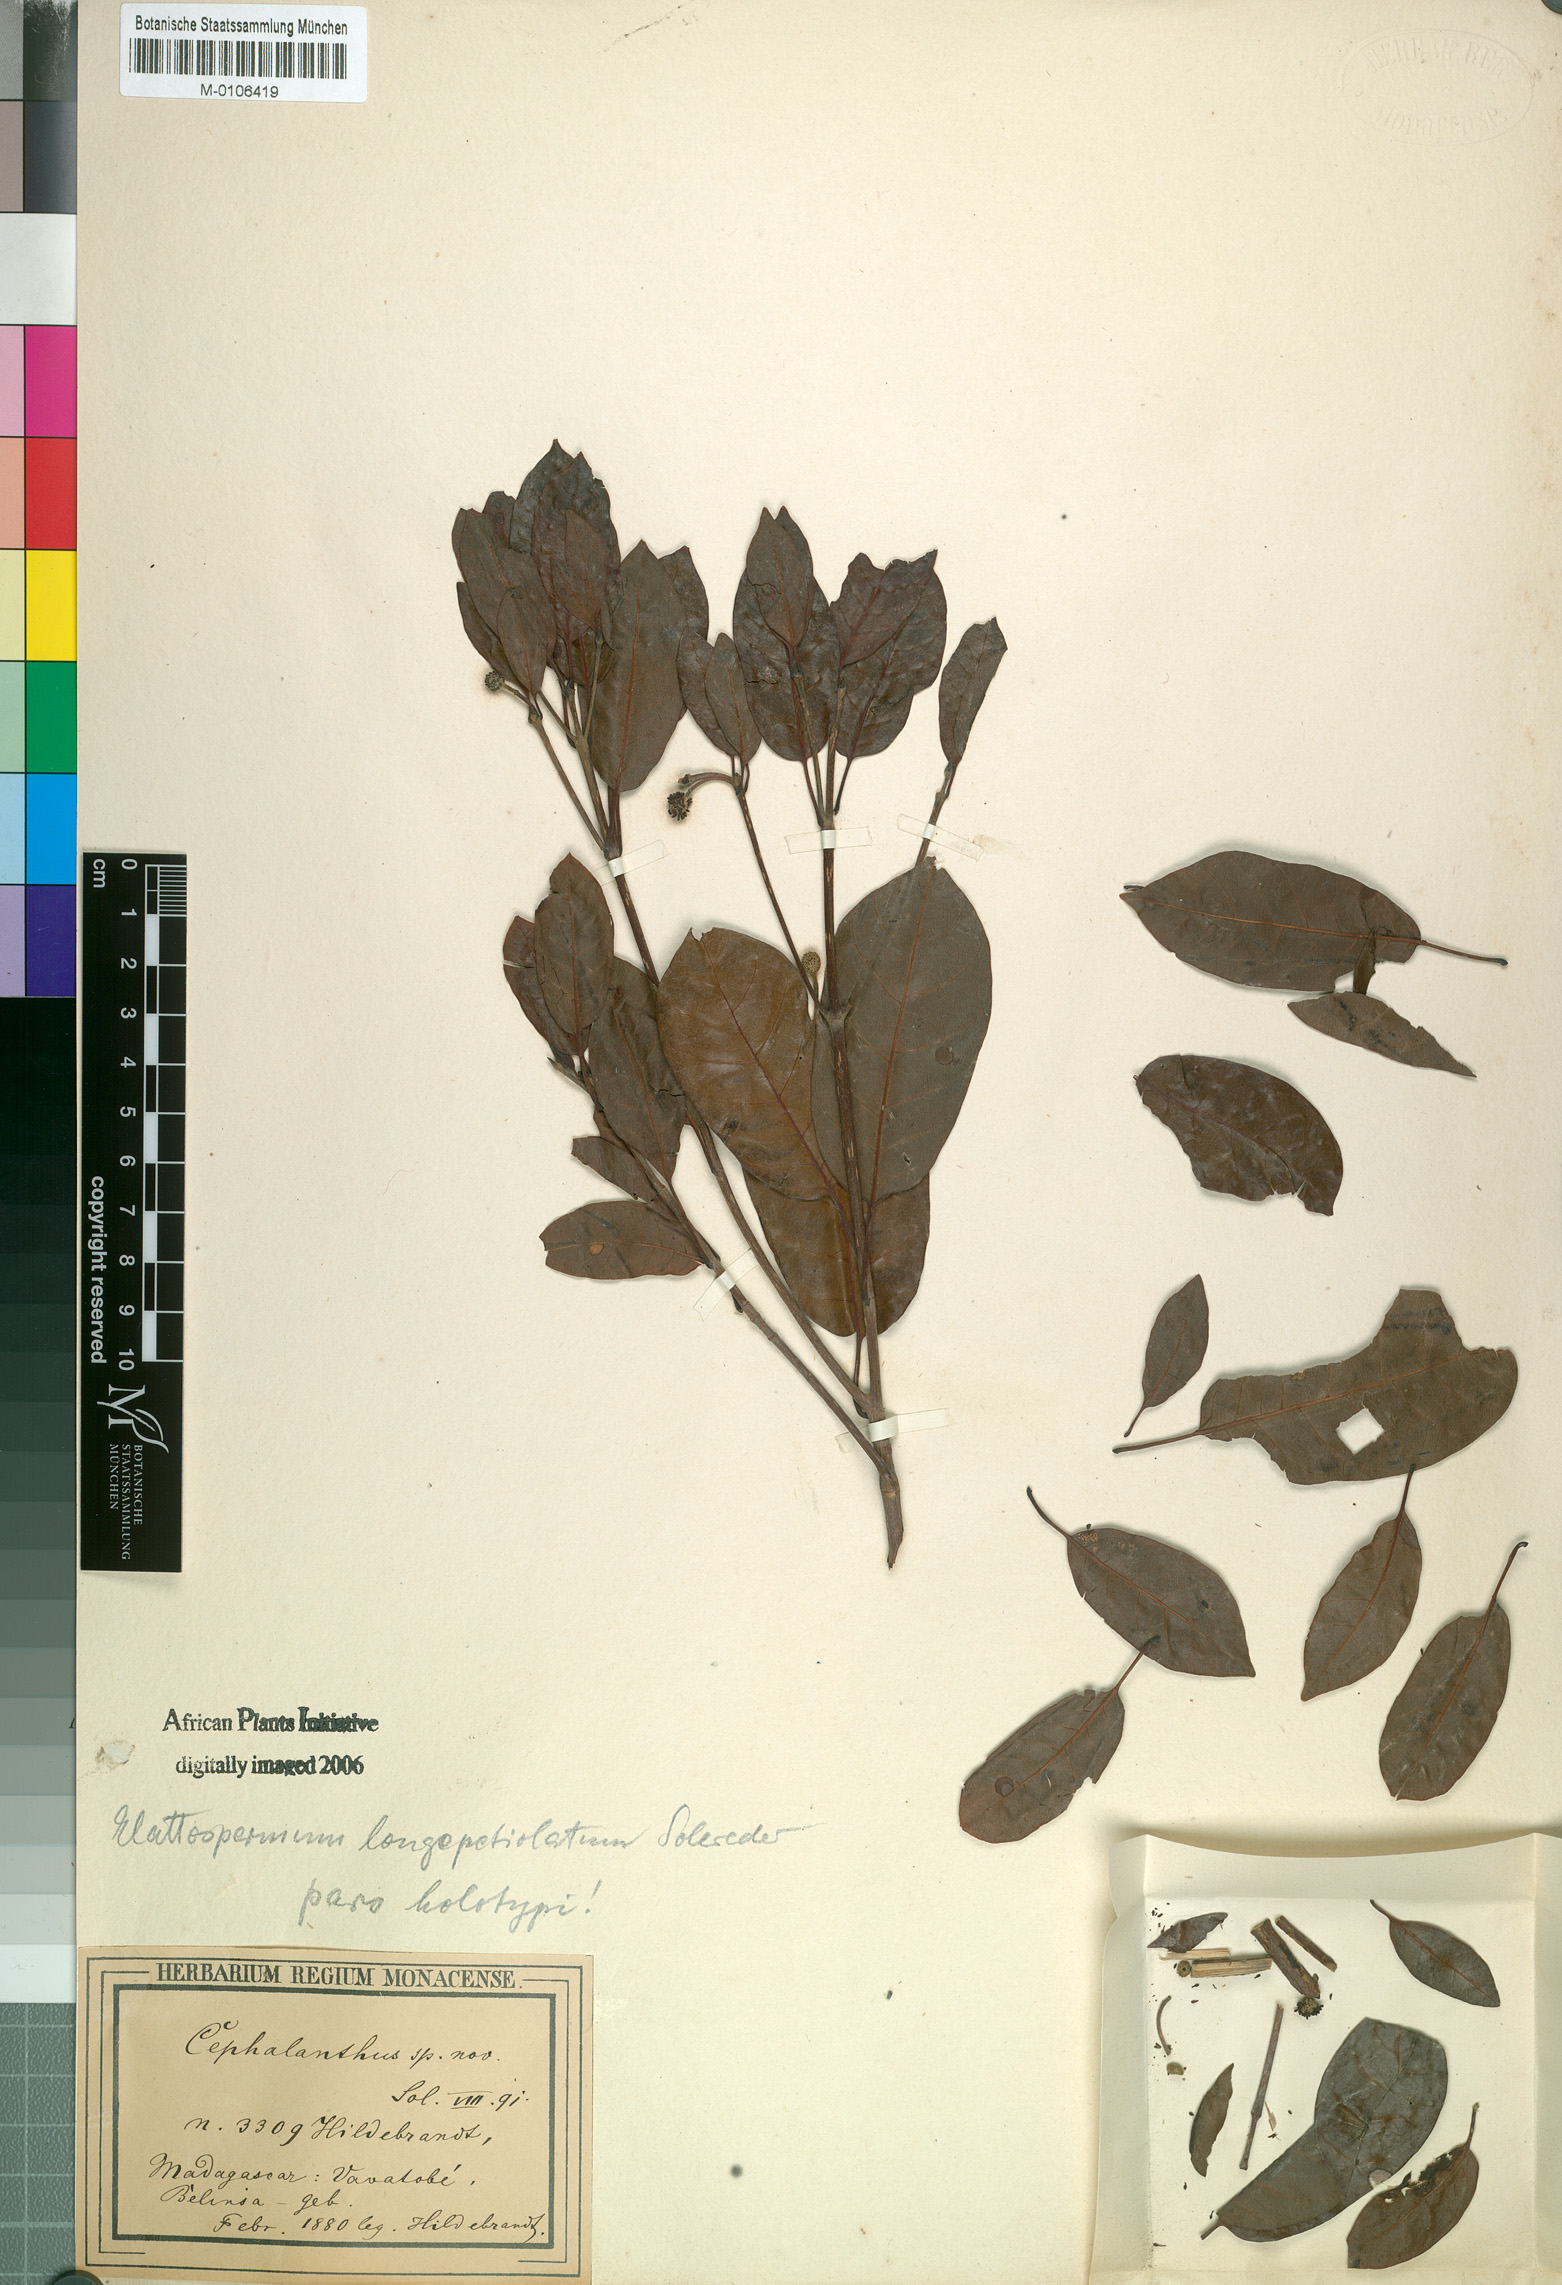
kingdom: Plantae
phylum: Tracheophyta
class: Magnoliopsida
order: Gentianales
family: Rubiaceae
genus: Breonia
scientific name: Breonia Elattospermum longepetiolatum
